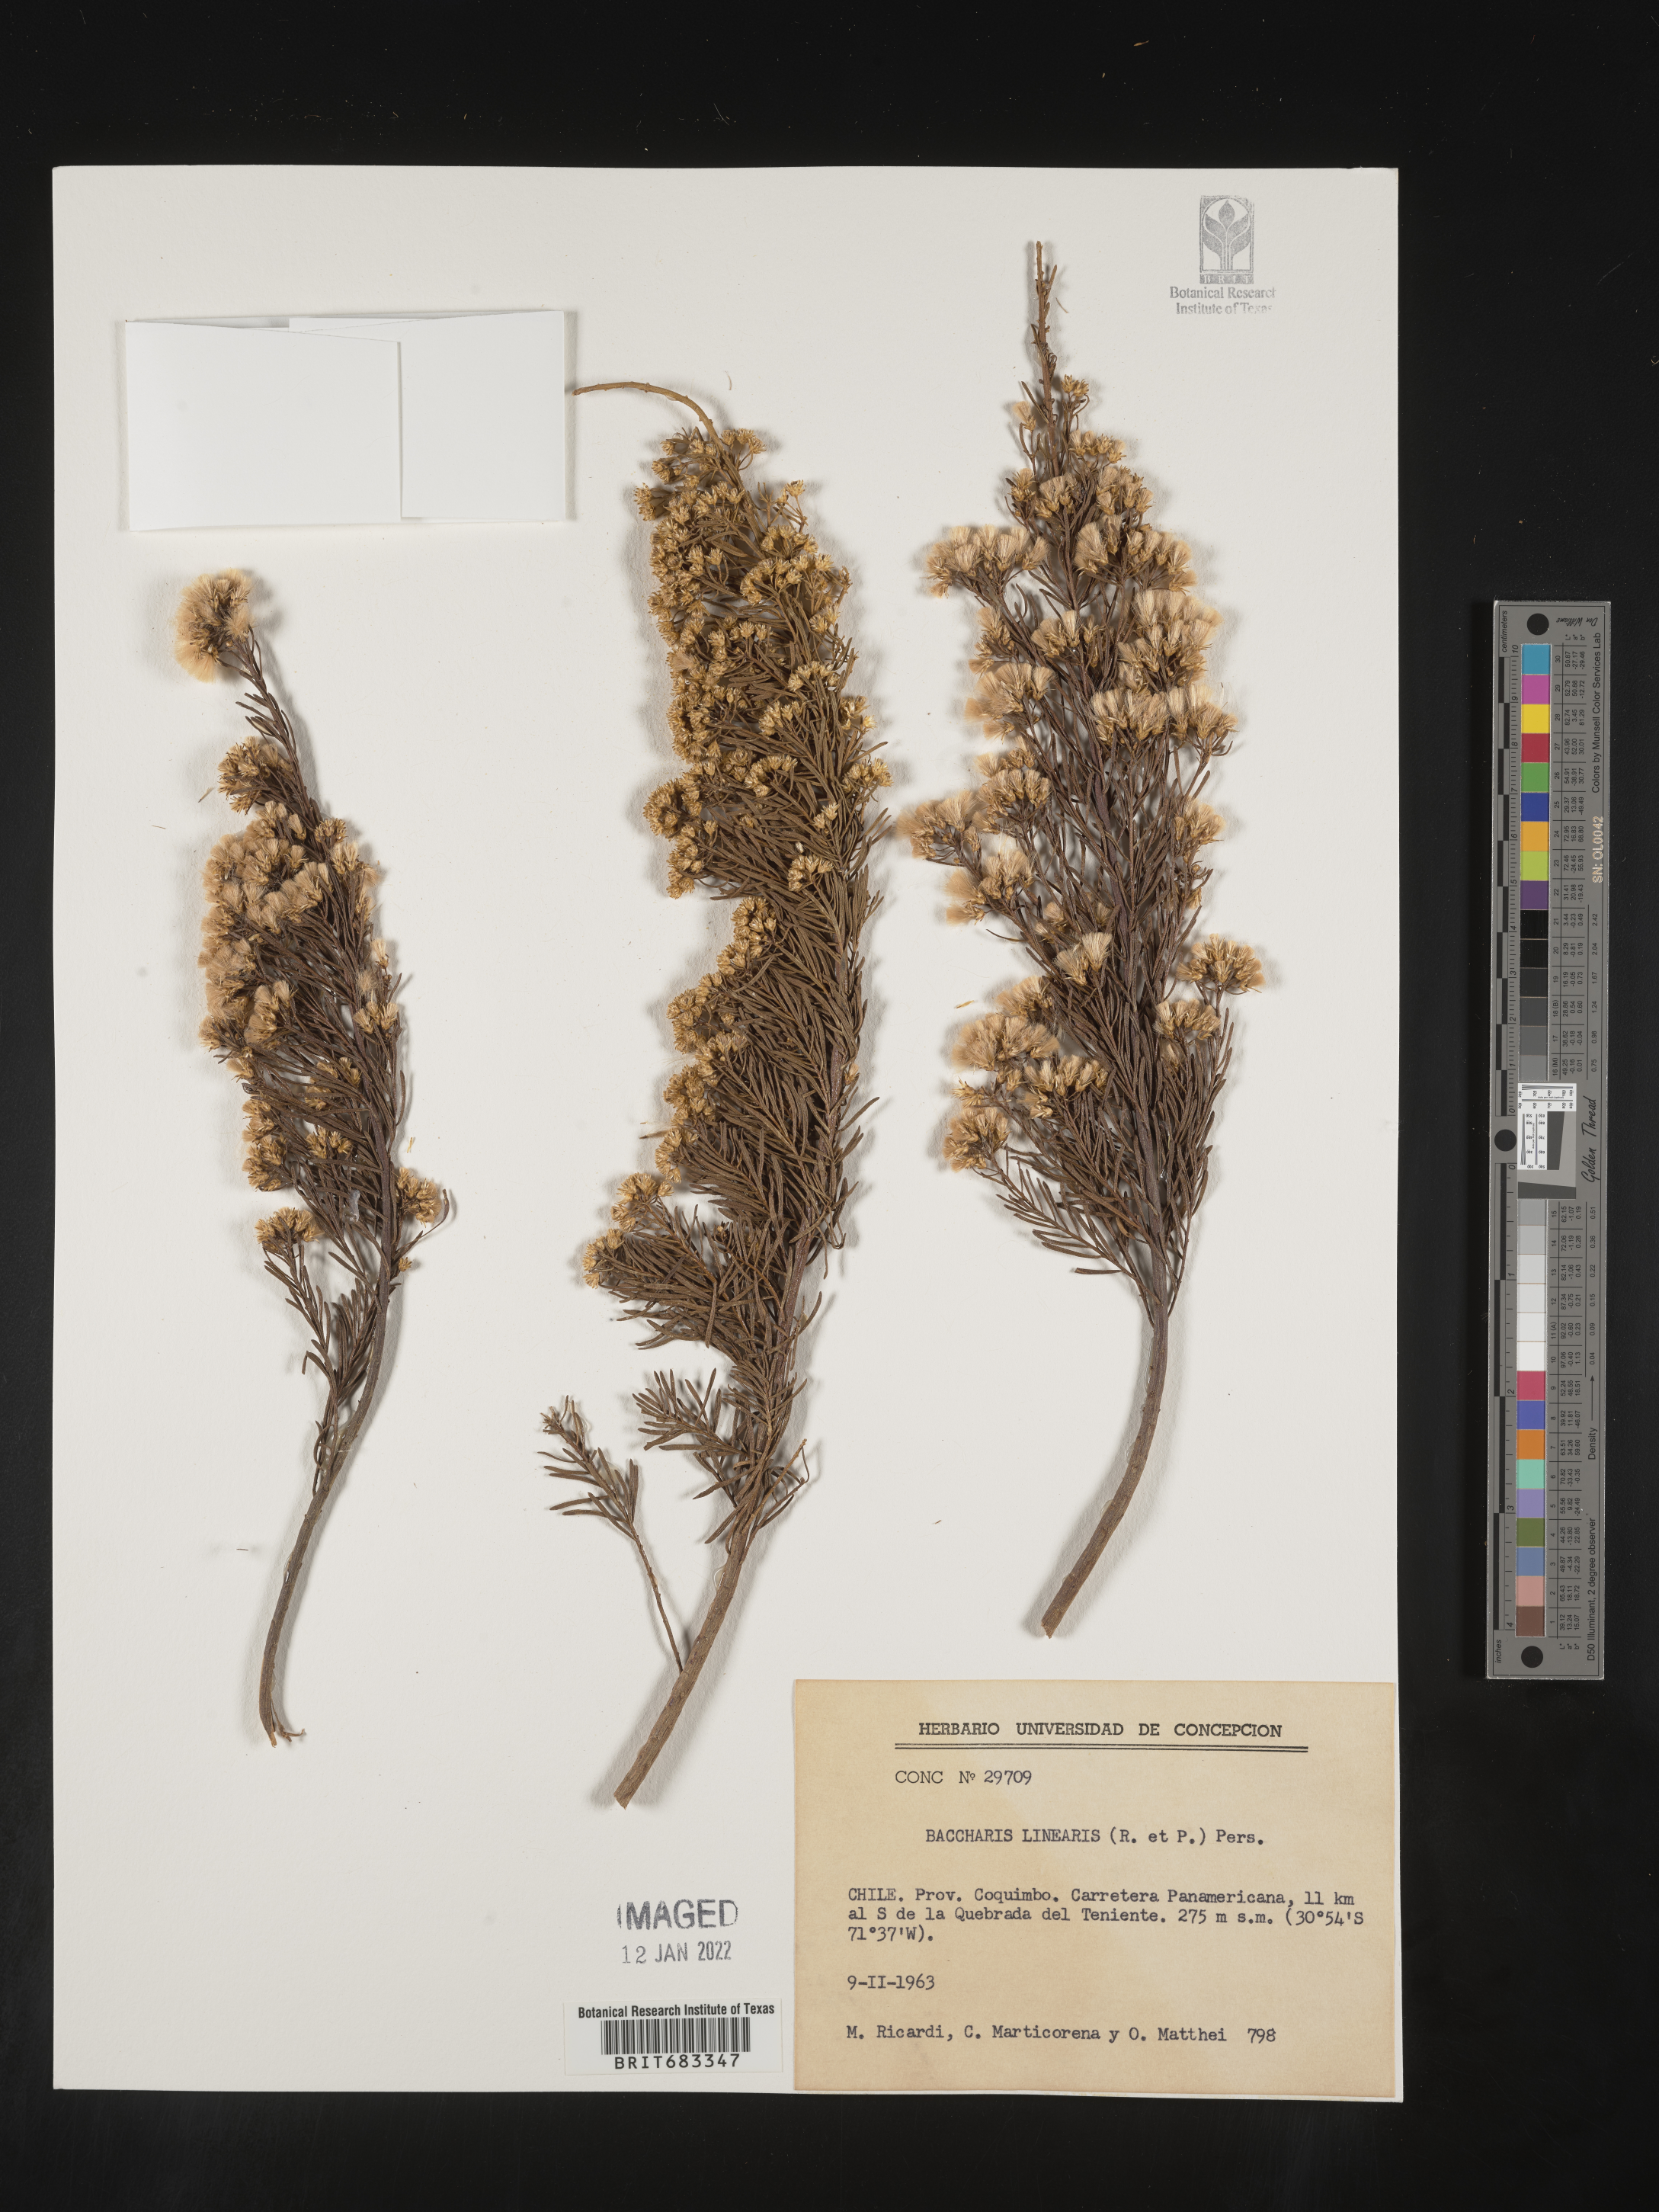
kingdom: Plantae
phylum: Tracheophyta
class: Magnoliopsida
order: Asterales
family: Asteraceae
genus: Baccharis
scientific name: Baccharis
